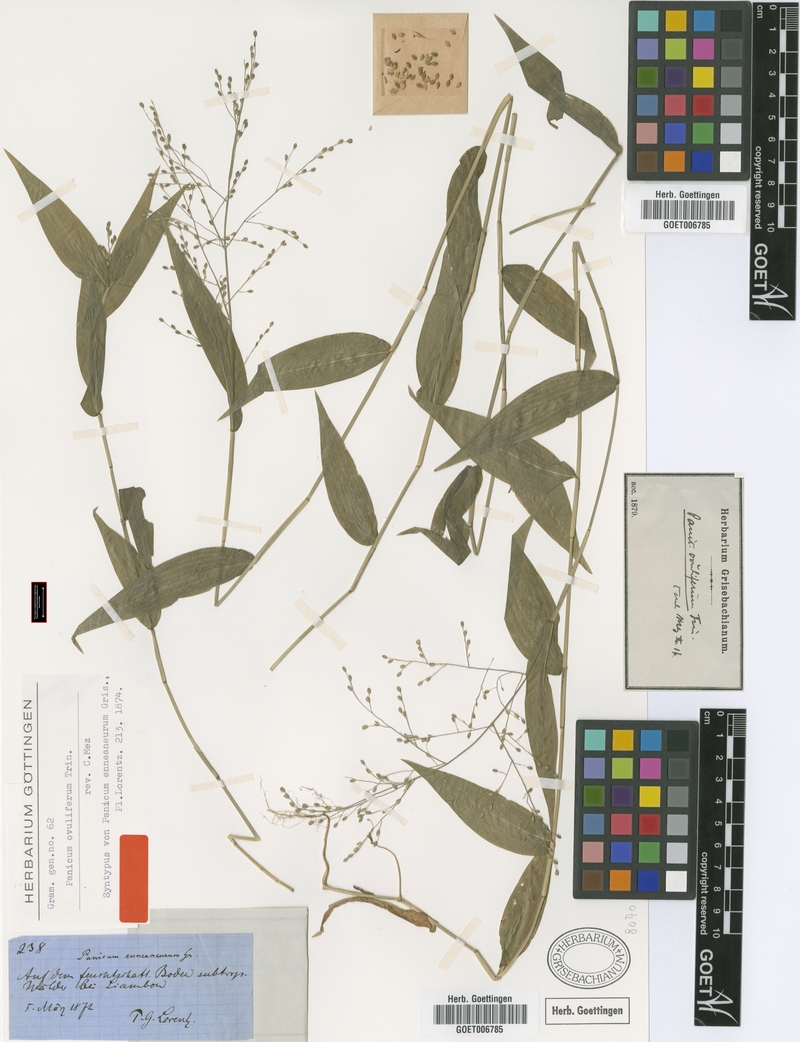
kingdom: Plantae
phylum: Tracheophyta
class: Liliopsida
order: Poales
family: Poaceae
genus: Parodiophyllochloa
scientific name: Parodiophyllochloa ovulifera
